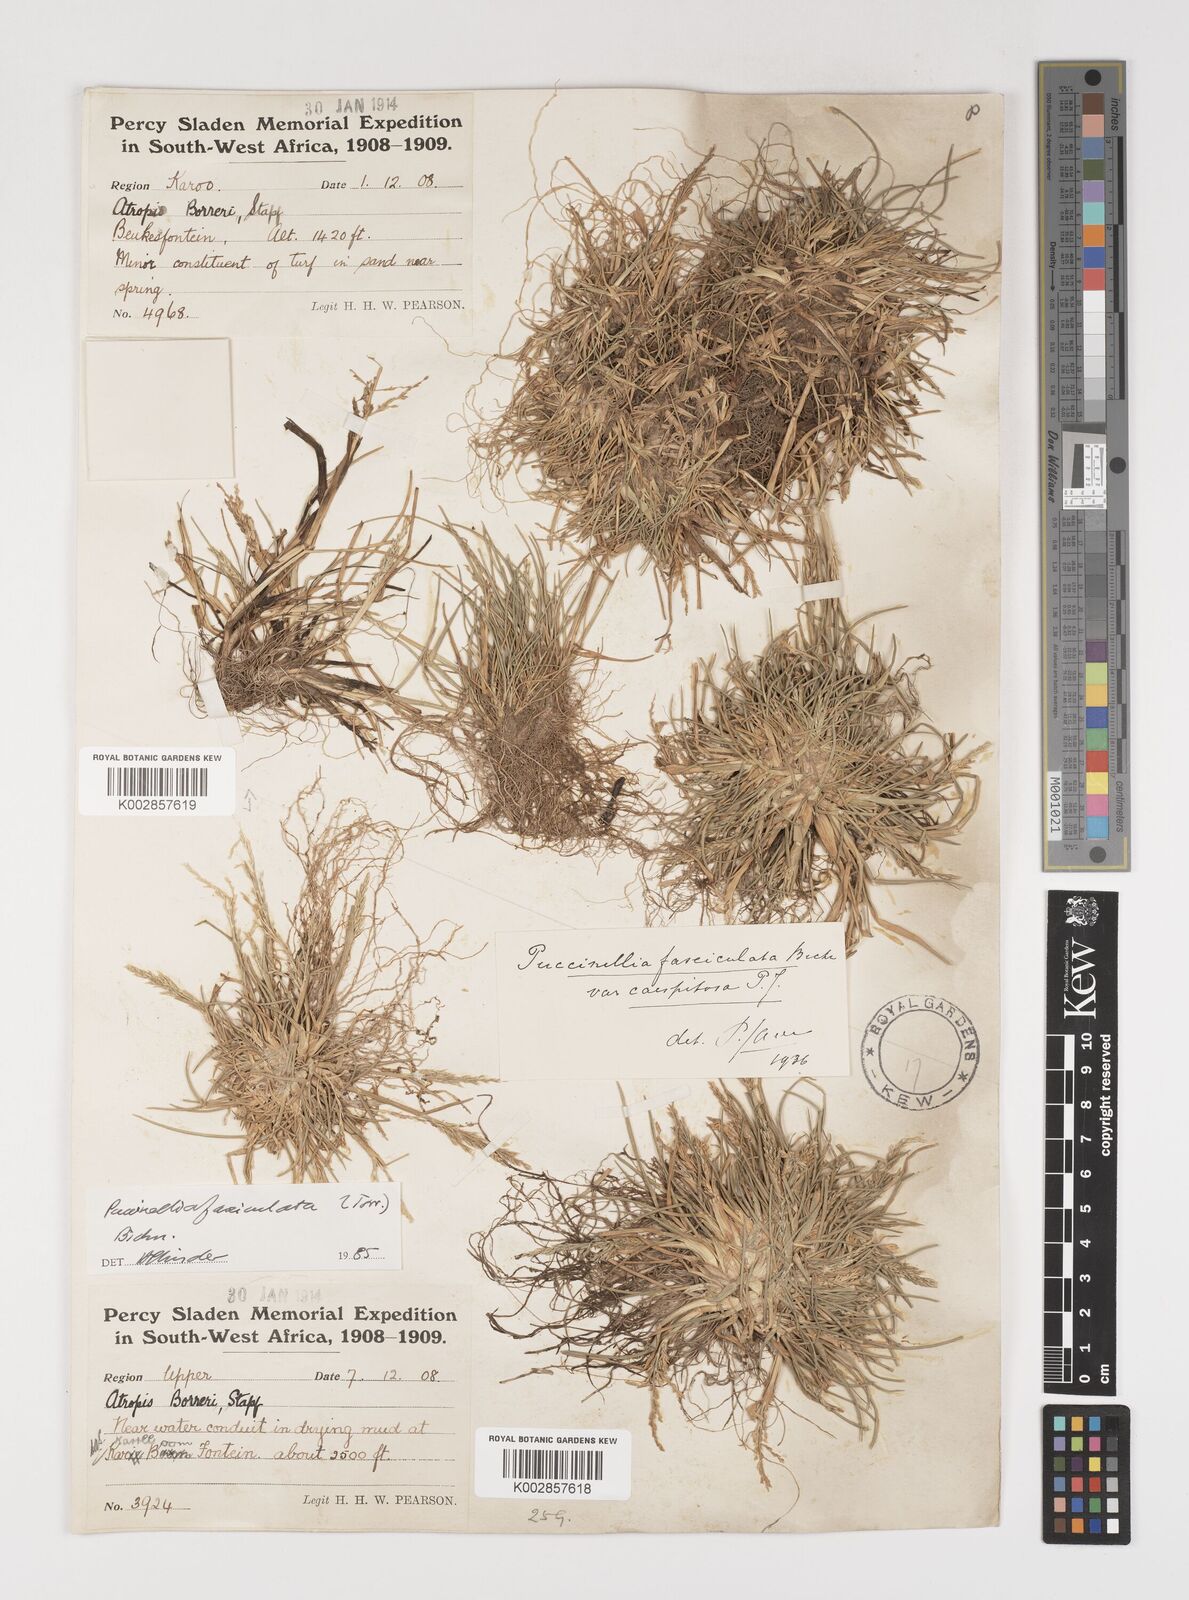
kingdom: Plantae
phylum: Tracheophyta
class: Liliopsida
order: Poales
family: Poaceae
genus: Puccinellia
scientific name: Puccinellia fasciculata
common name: Borrer's saltmarsh-grass
